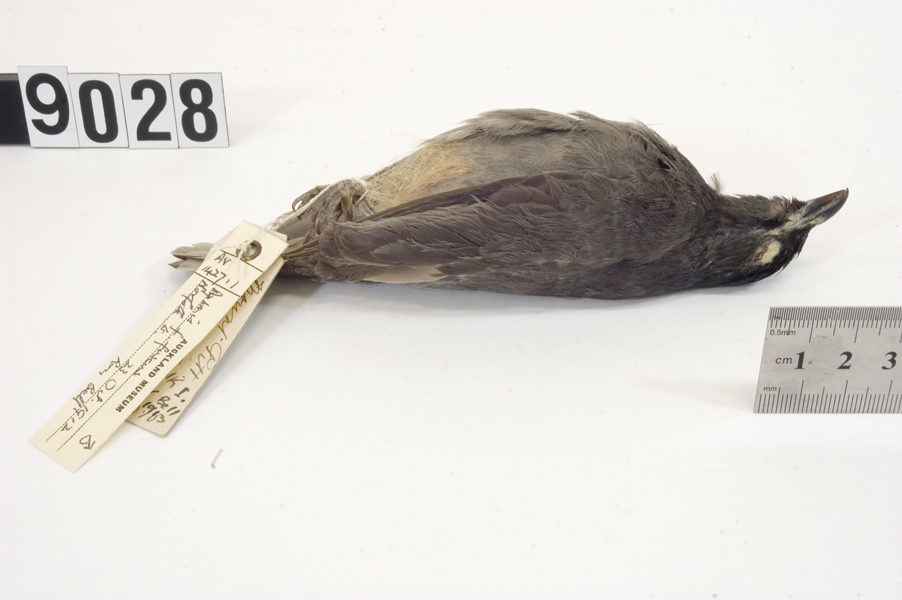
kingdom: Animalia
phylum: Chordata
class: Aves
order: Passeriformes
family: Sturnidae
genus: Aplonis
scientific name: Aplonis fusca
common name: Tasman starling
